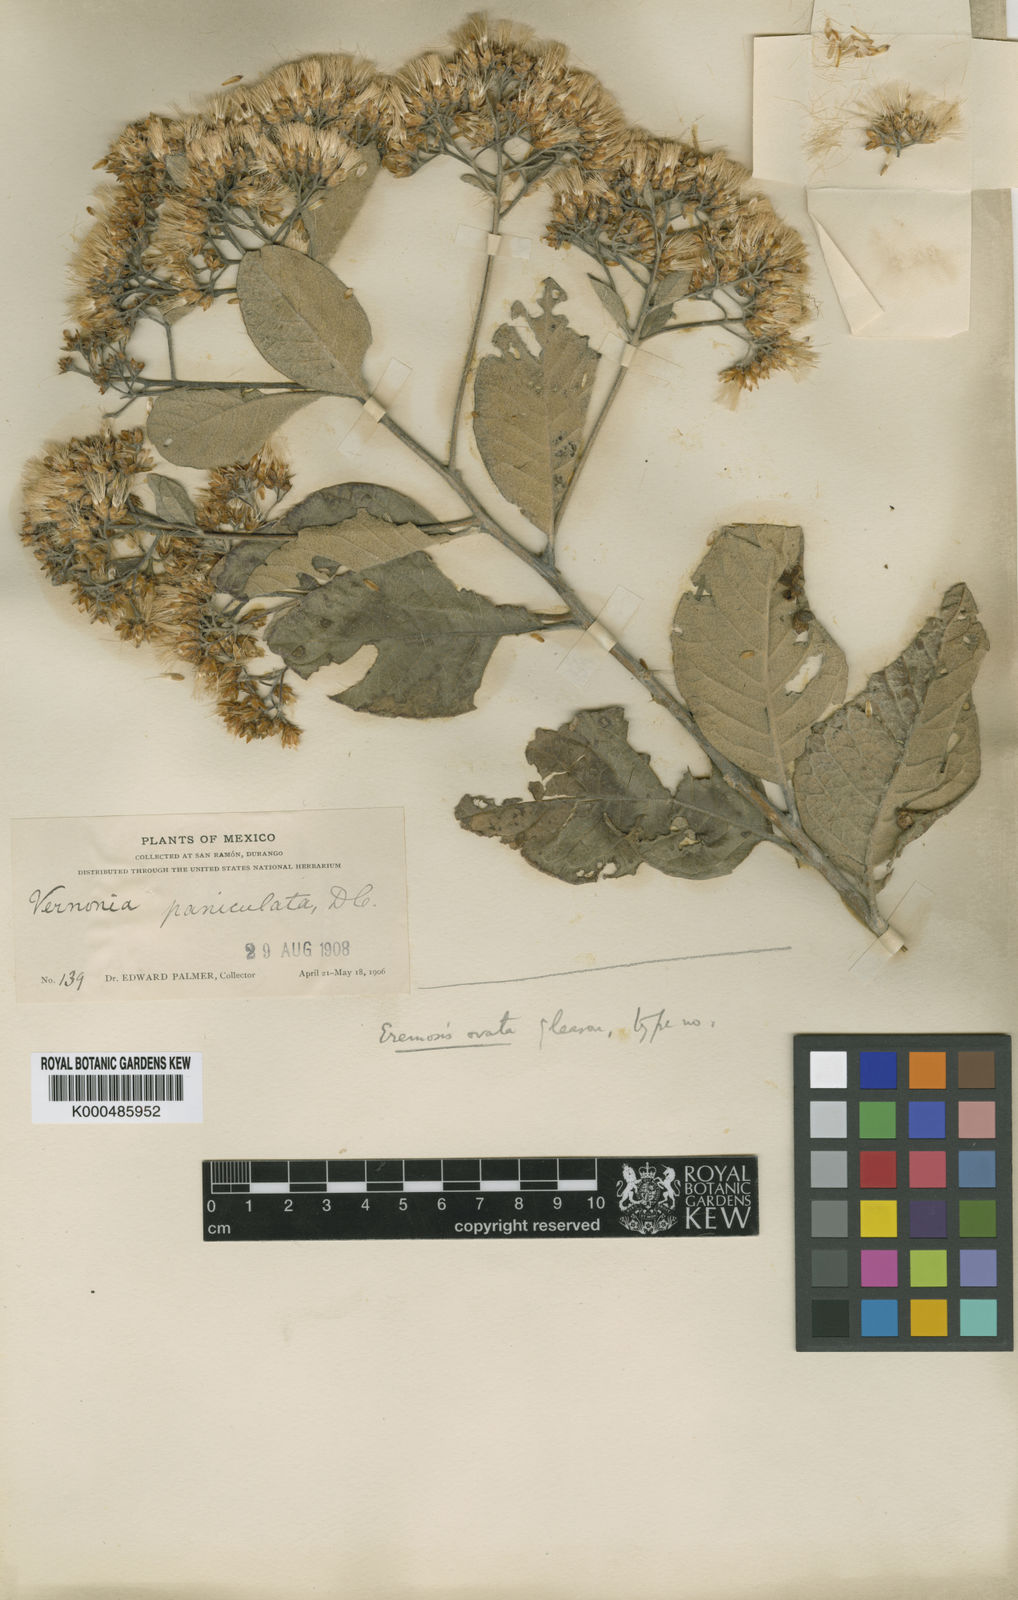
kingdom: Plantae
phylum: Tracheophyta
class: Magnoliopsida
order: Asterales
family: Asteraceae
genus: Eremosis
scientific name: Eremosis ovata
